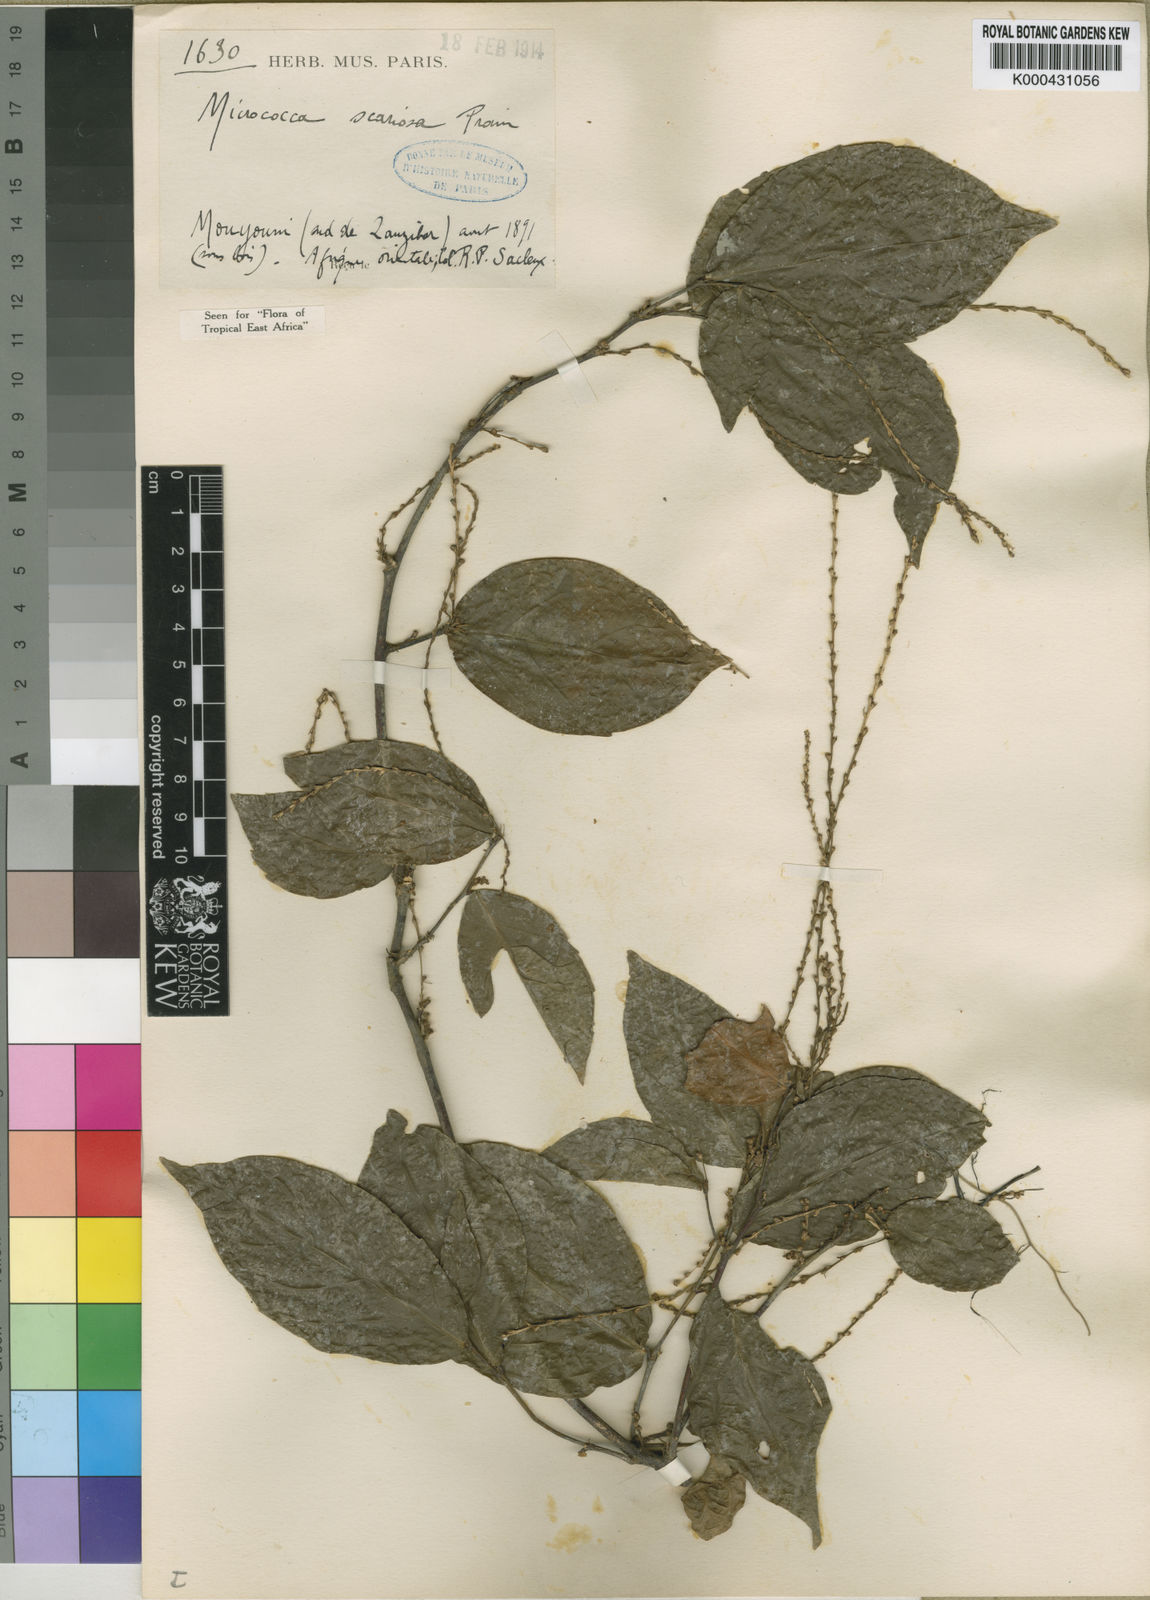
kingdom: Plantae
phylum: Tracheophyta
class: Magnoliopsida
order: Malpighiales
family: Euphorbiaceae
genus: Micrococca
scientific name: Micrococca scariosa
